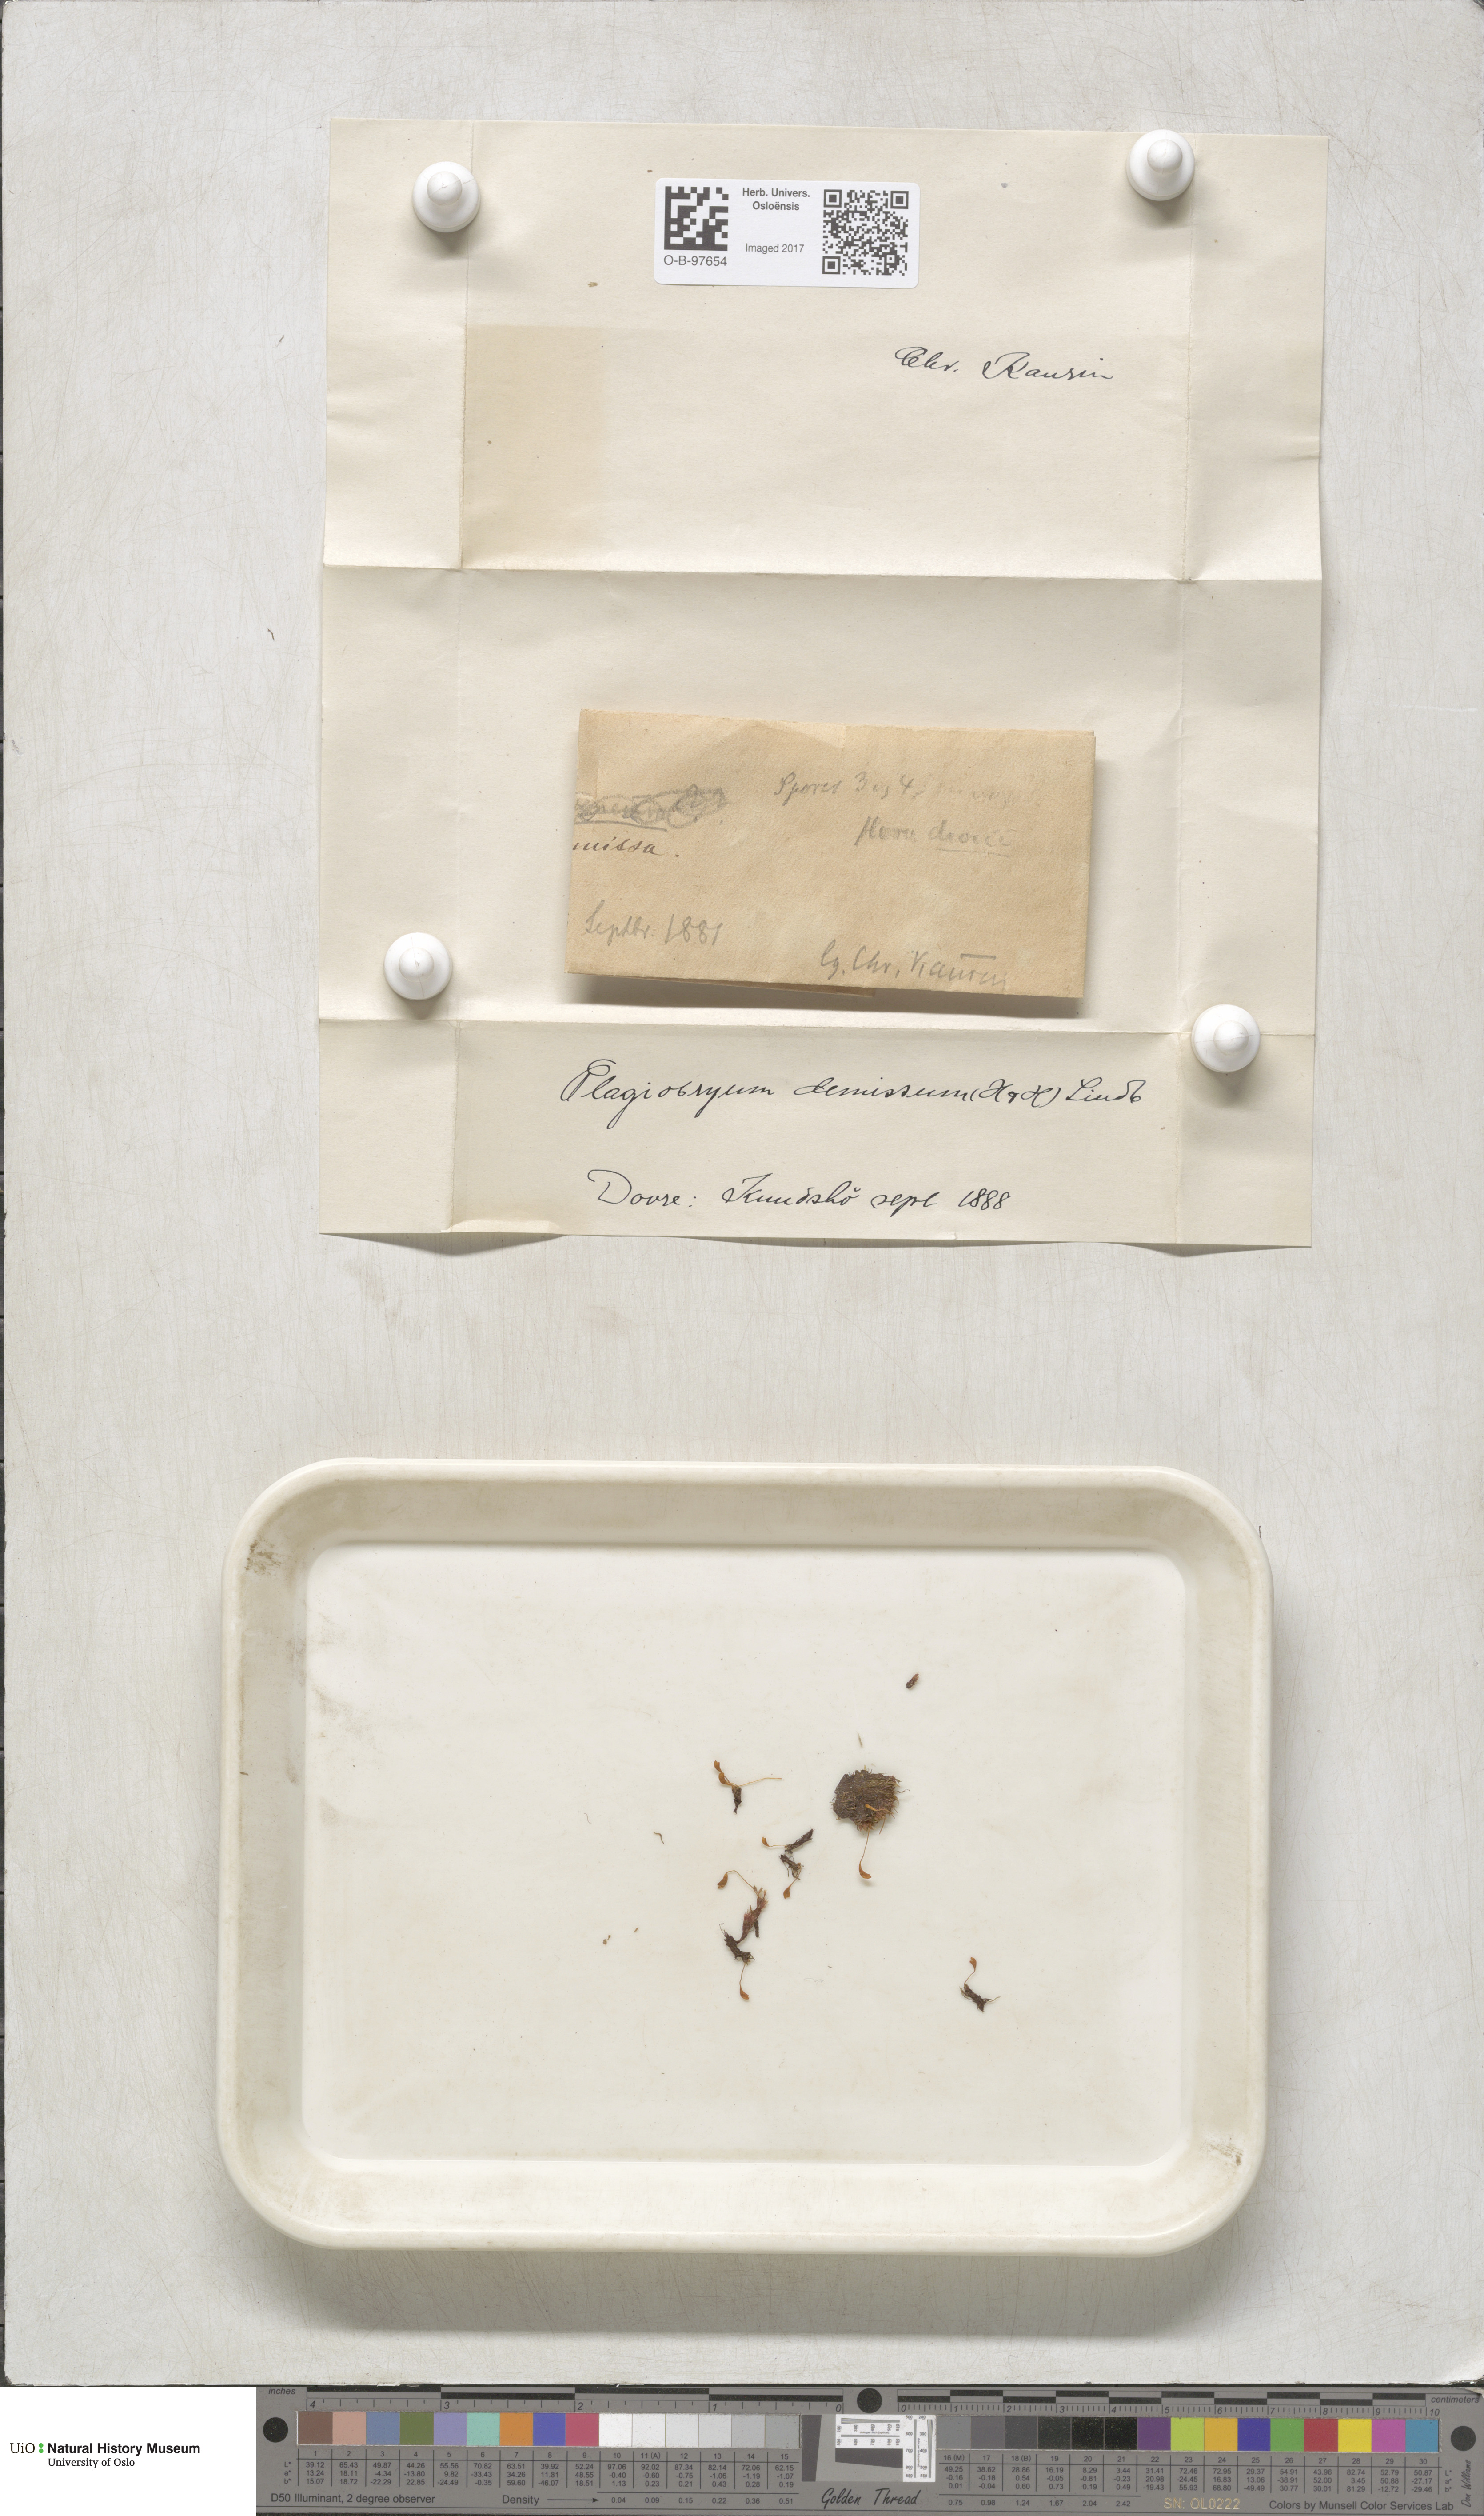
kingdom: Plantae
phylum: Bryophyta
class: Bryopsida
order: Bryales
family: Bryaceae
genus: Plagiobryum
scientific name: Plagiobryum demissum
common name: Drooping hump moss
